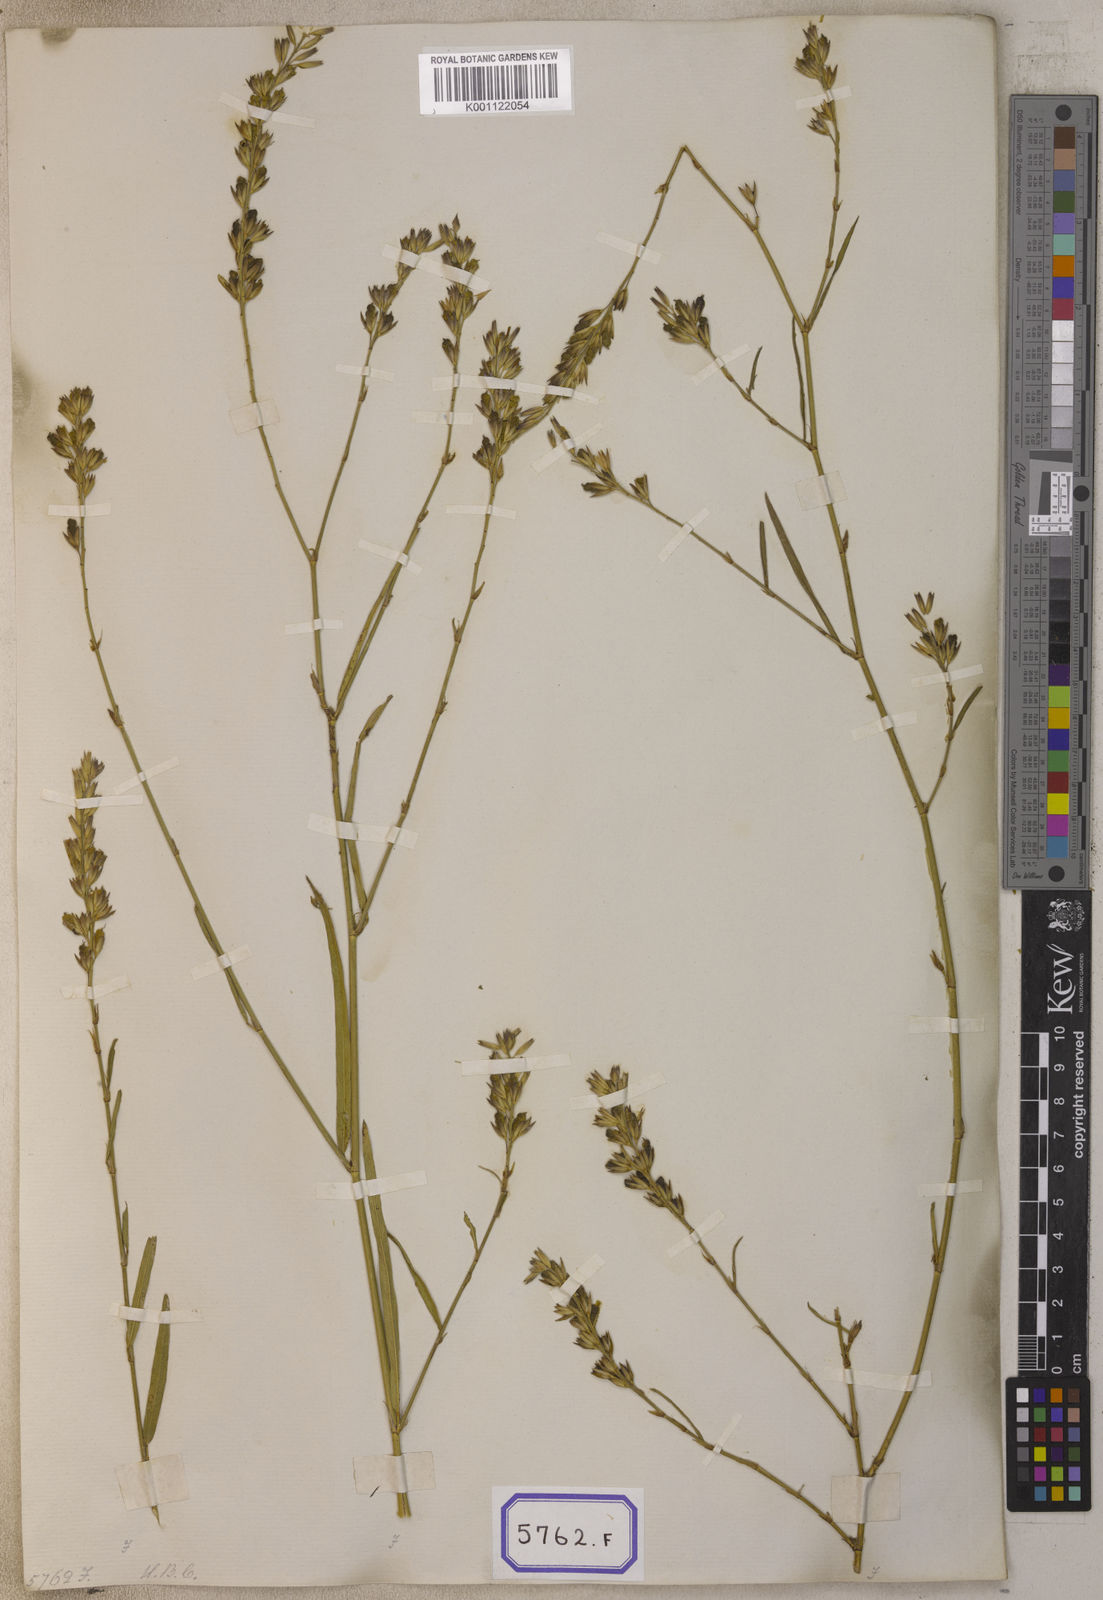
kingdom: Plantae
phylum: Tracheophyta
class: Magnoliopsida
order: Fabales
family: Fabaceae
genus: Alysicarpus
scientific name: Alysicarpus
